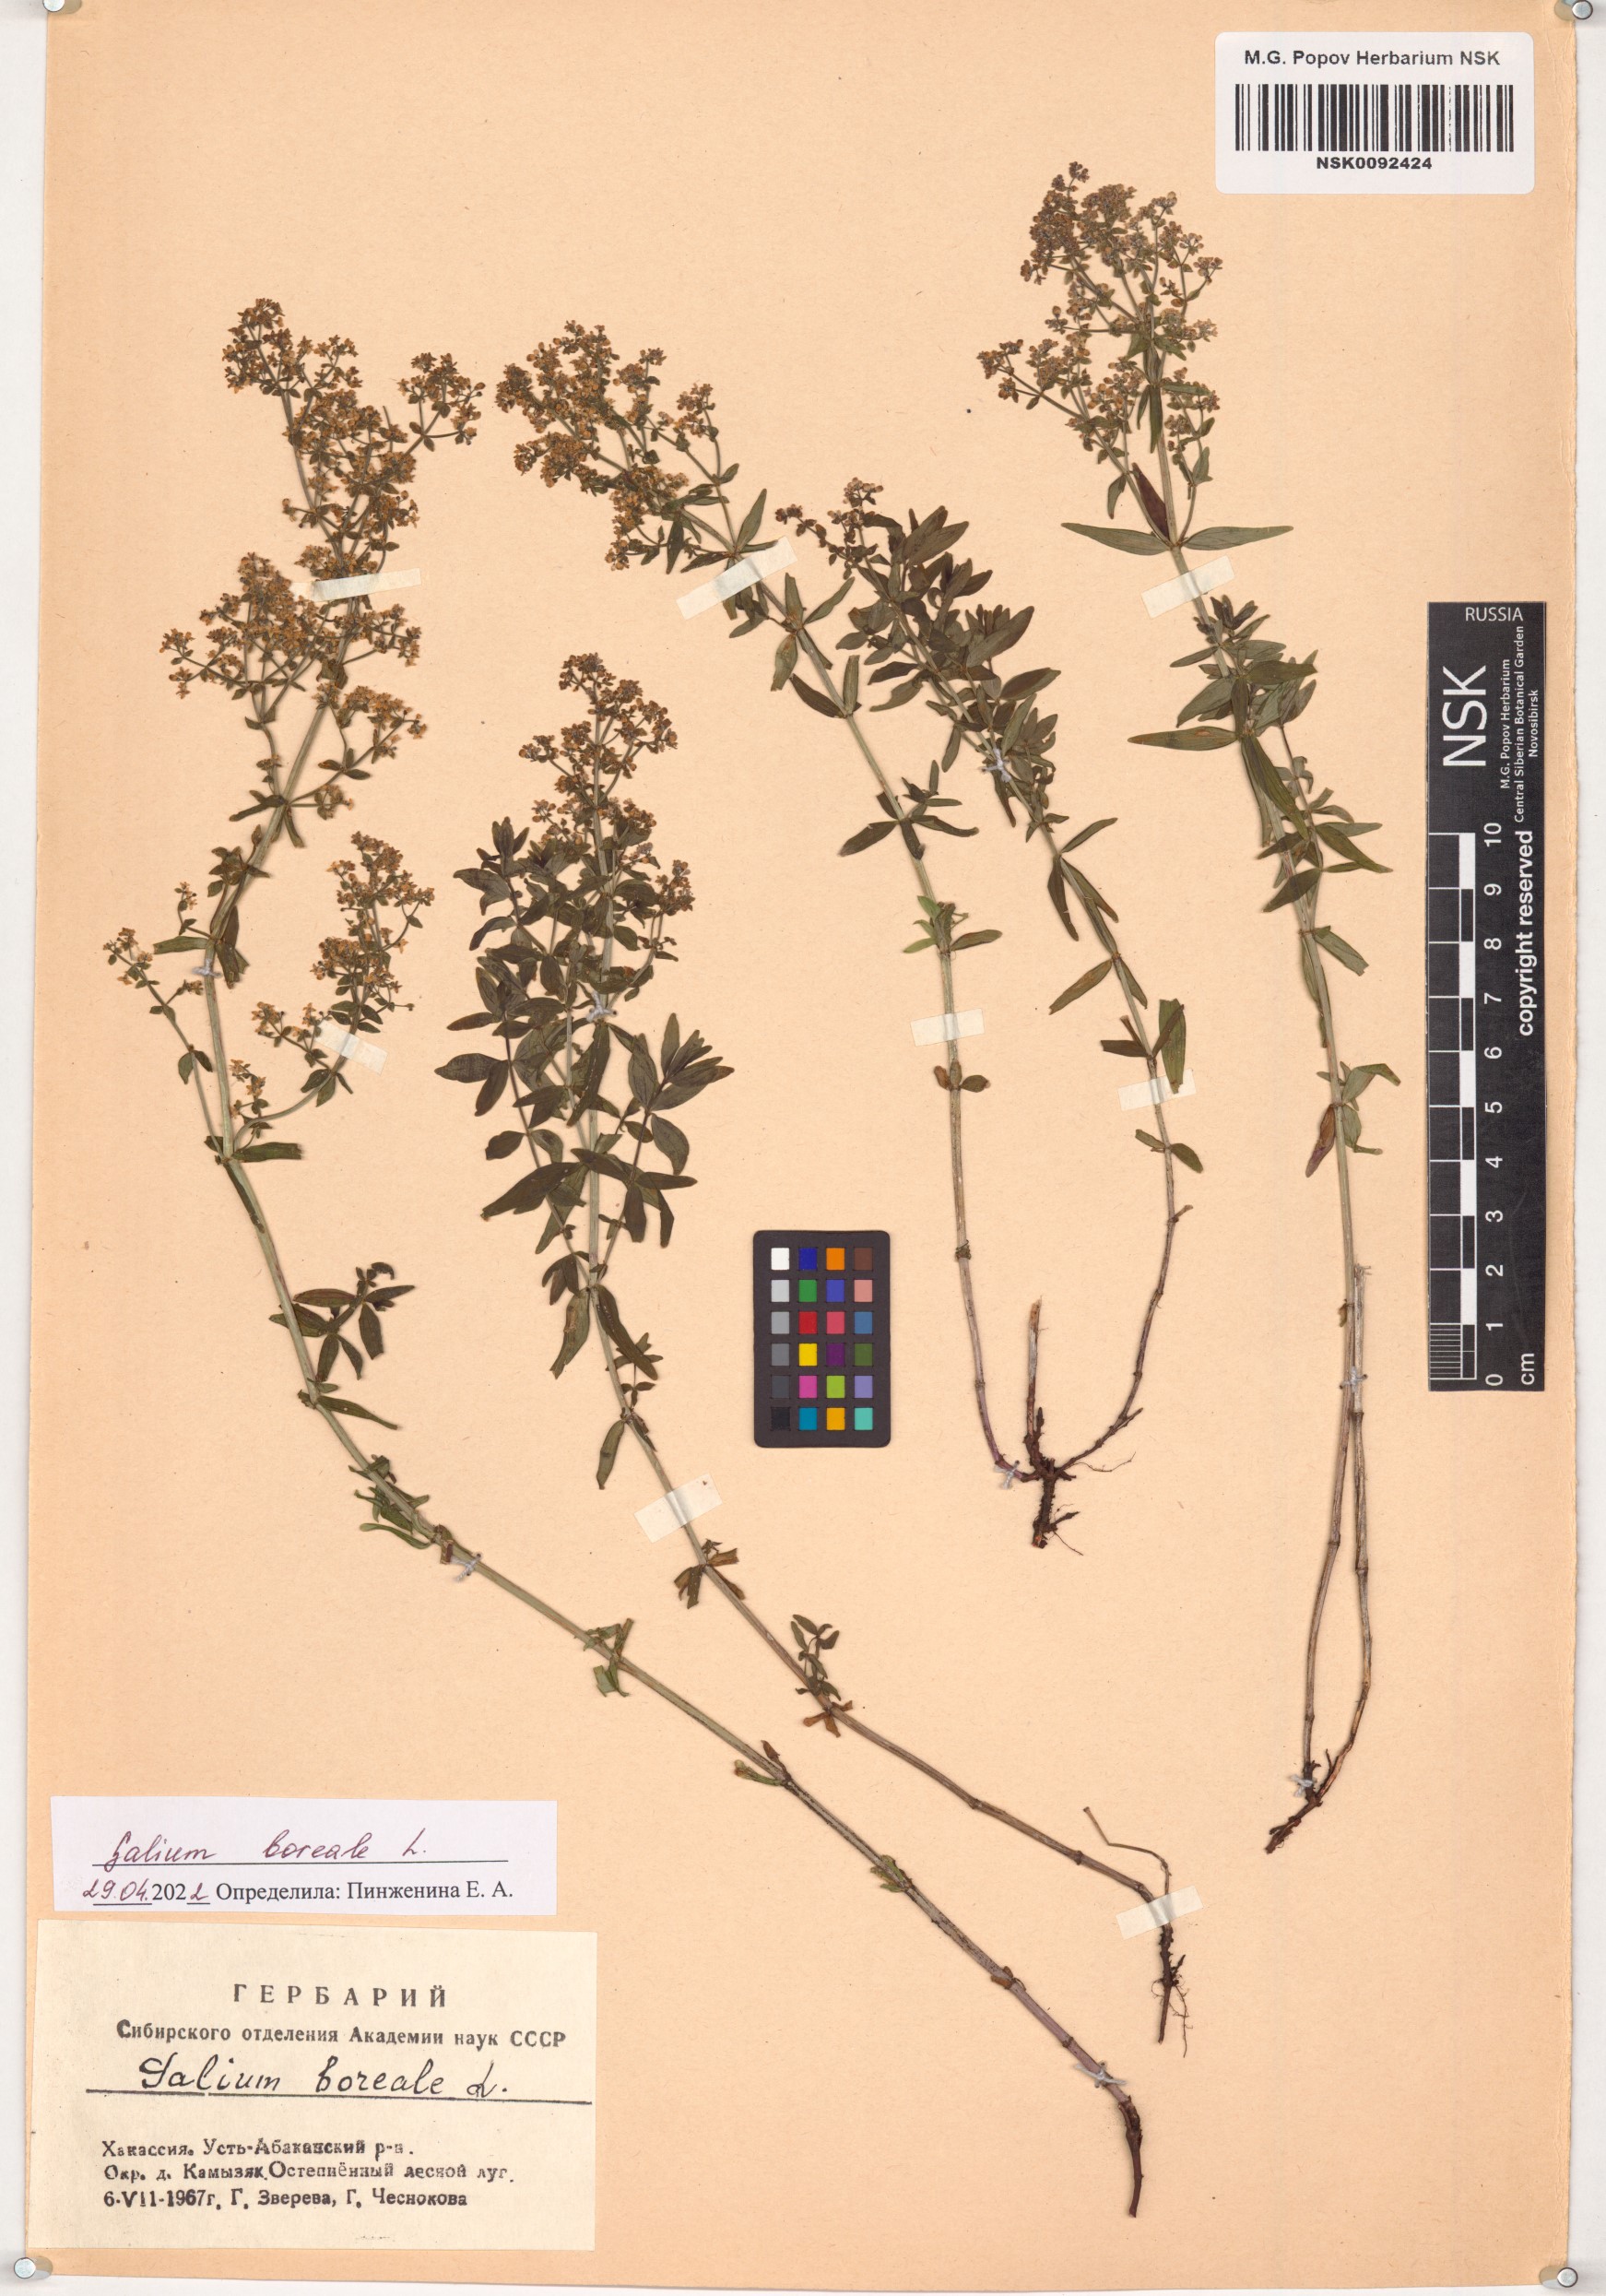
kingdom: Plantae
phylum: Tracheophyta
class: Magnoliopsida
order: Gentianales
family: Rubiaceae
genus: Galium
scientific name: Galium boreale
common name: Northern bedstraw
